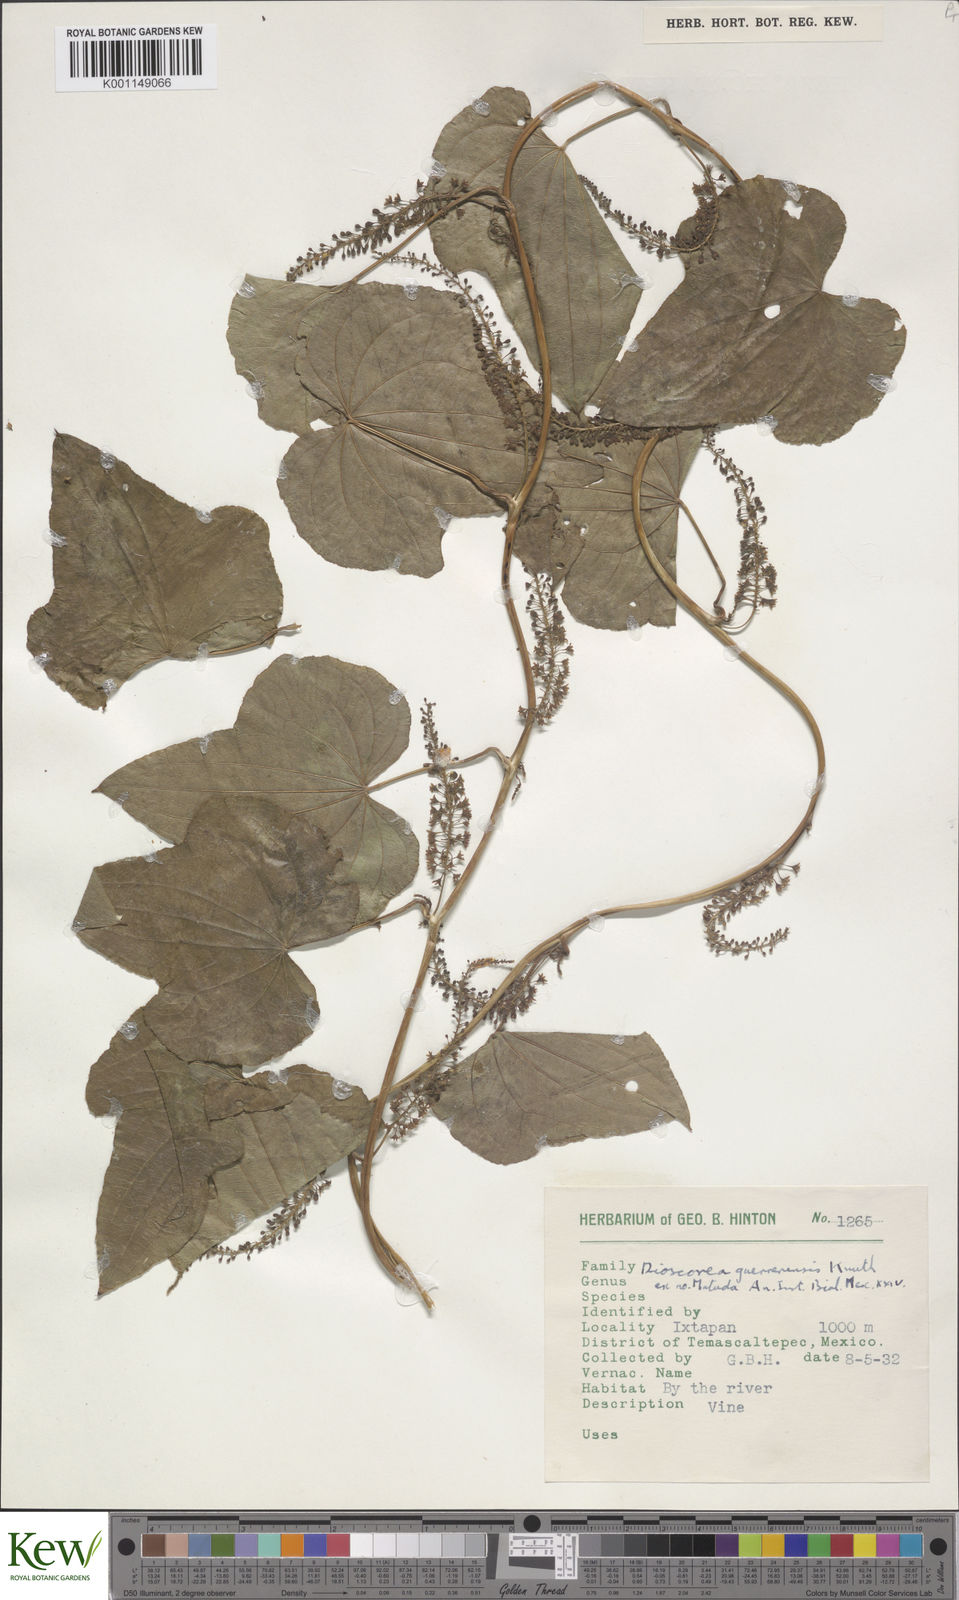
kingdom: Plantae
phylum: Tracheophyta
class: Liliopsida
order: Dioscoreales
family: Dioscoreaceae
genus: Dioscorea
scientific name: Dioscorea guerrerensis
